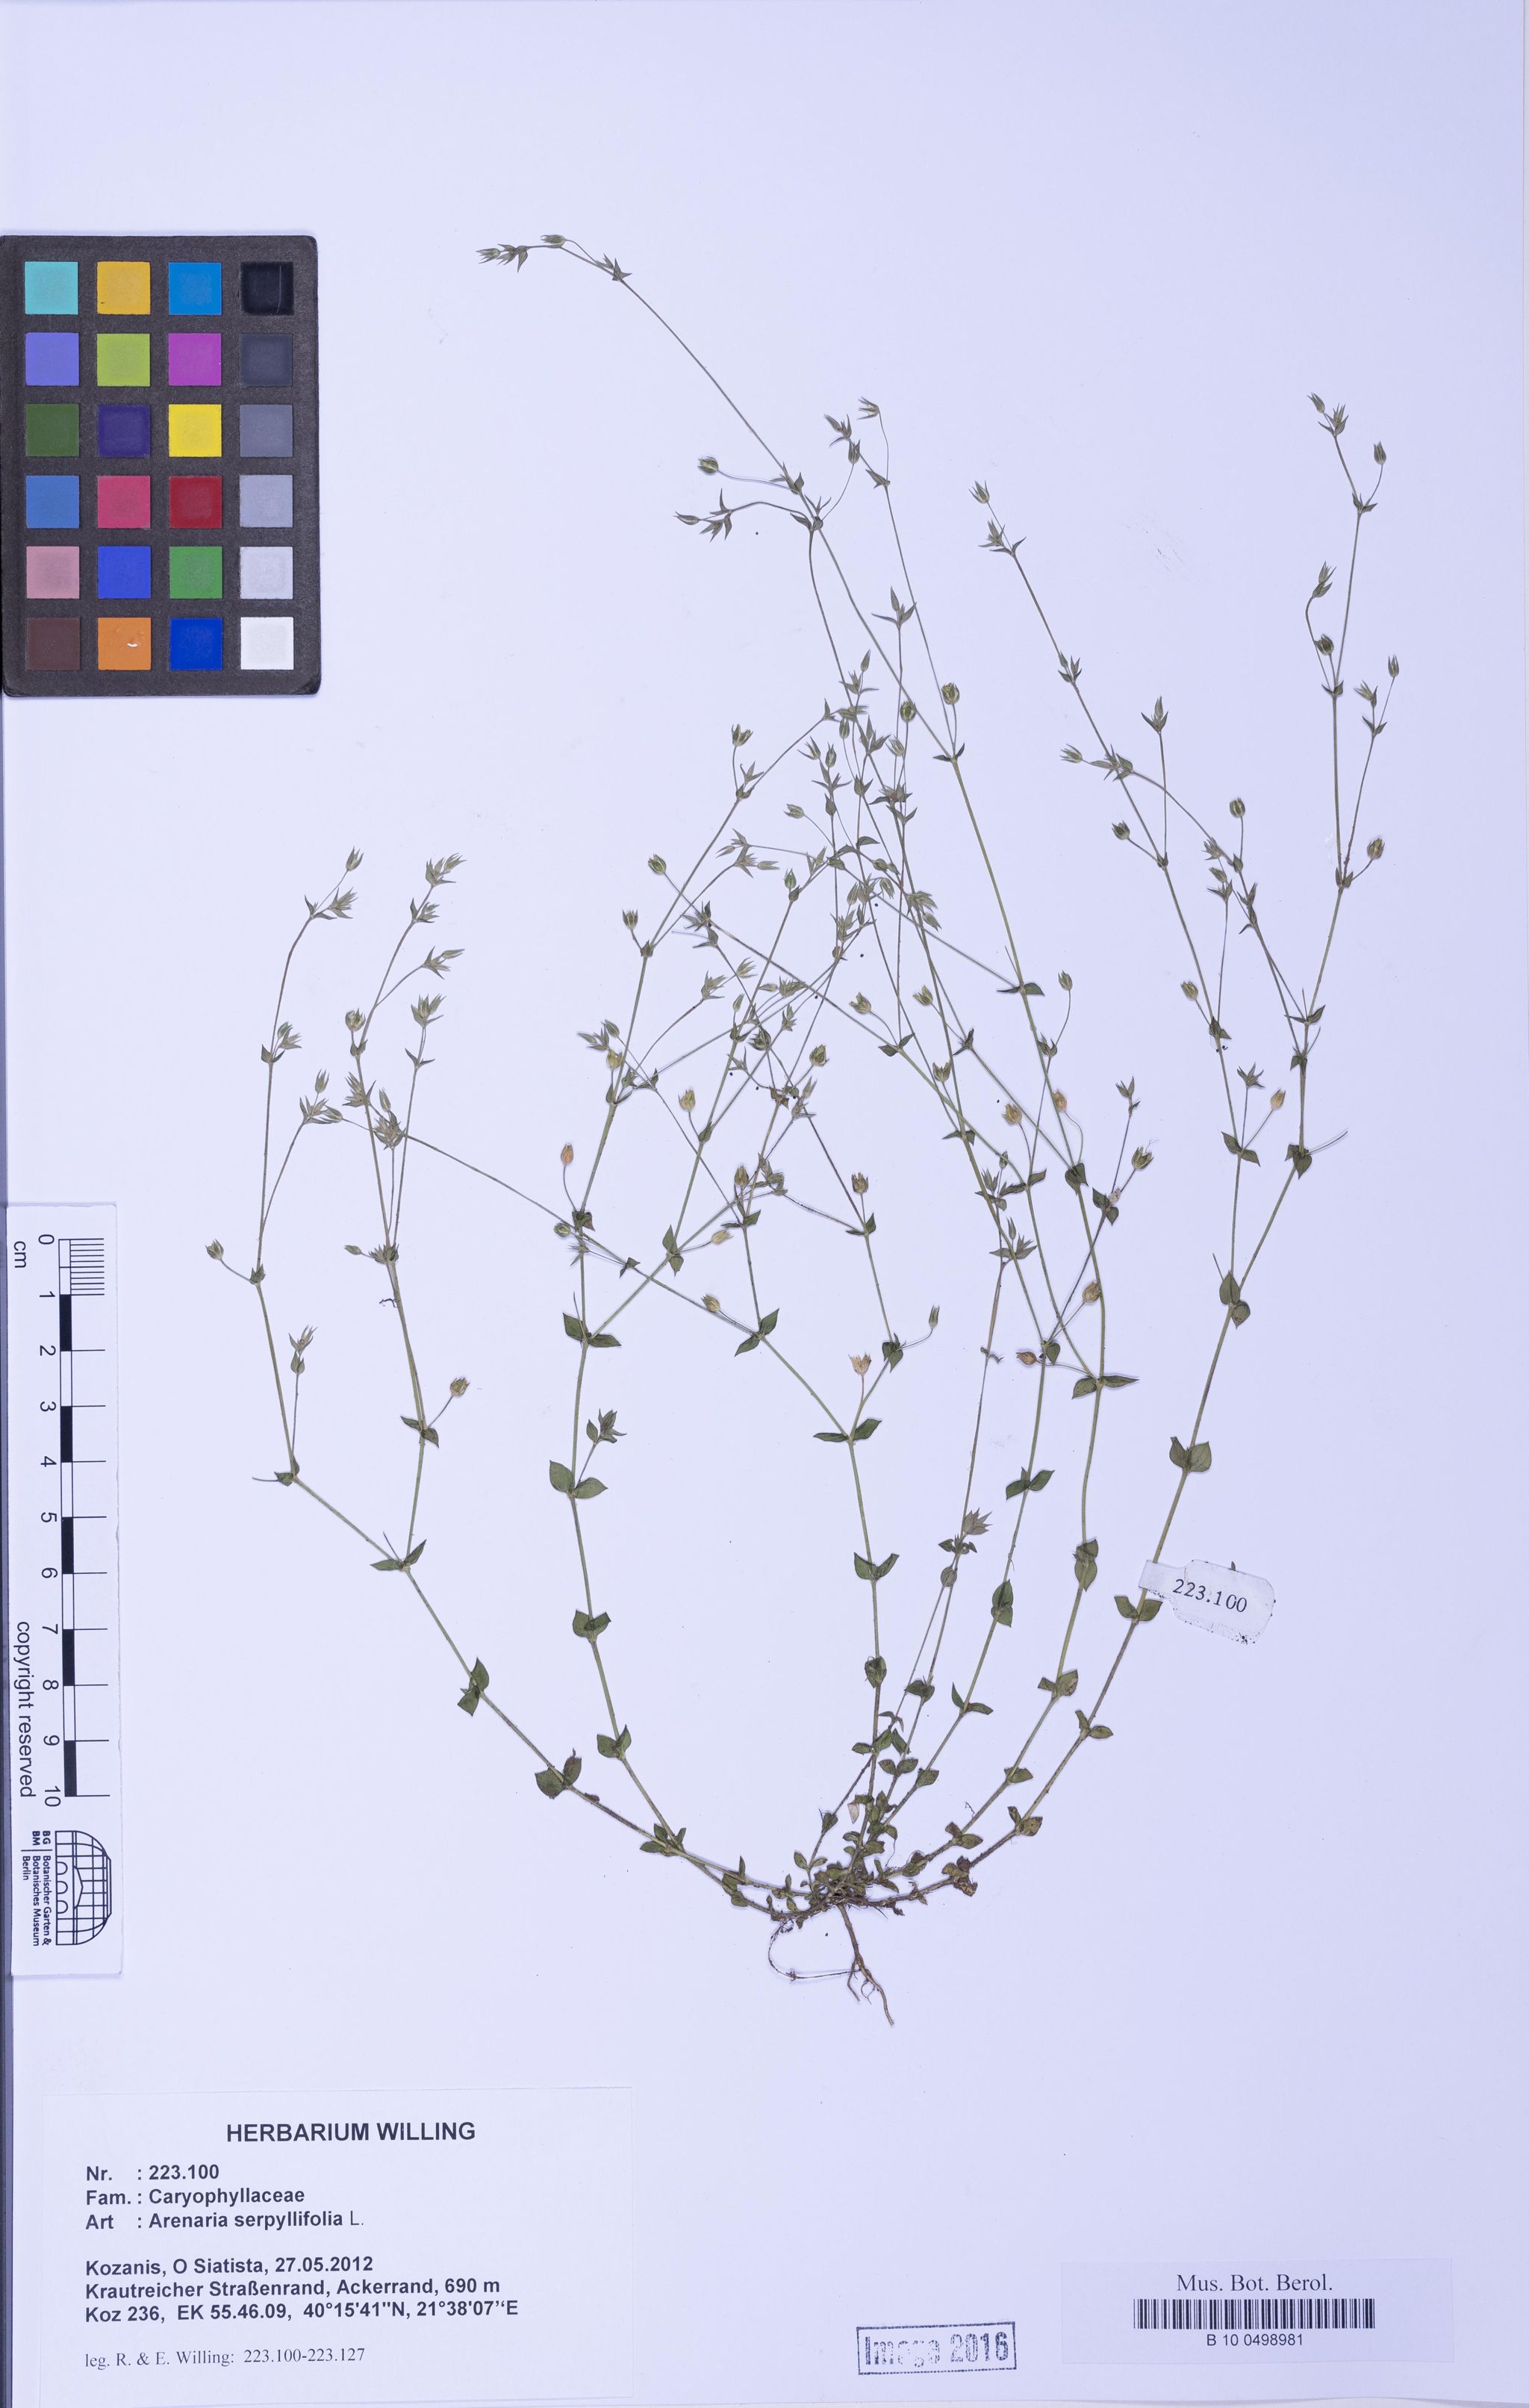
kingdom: Plantae
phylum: Tracheophyta
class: Magnoliopsida
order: Caryophyllales
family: Caryophyllaceae
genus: Arenaria
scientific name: Arenaria serpyllifolia
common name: Thyme-leaved sandwort
